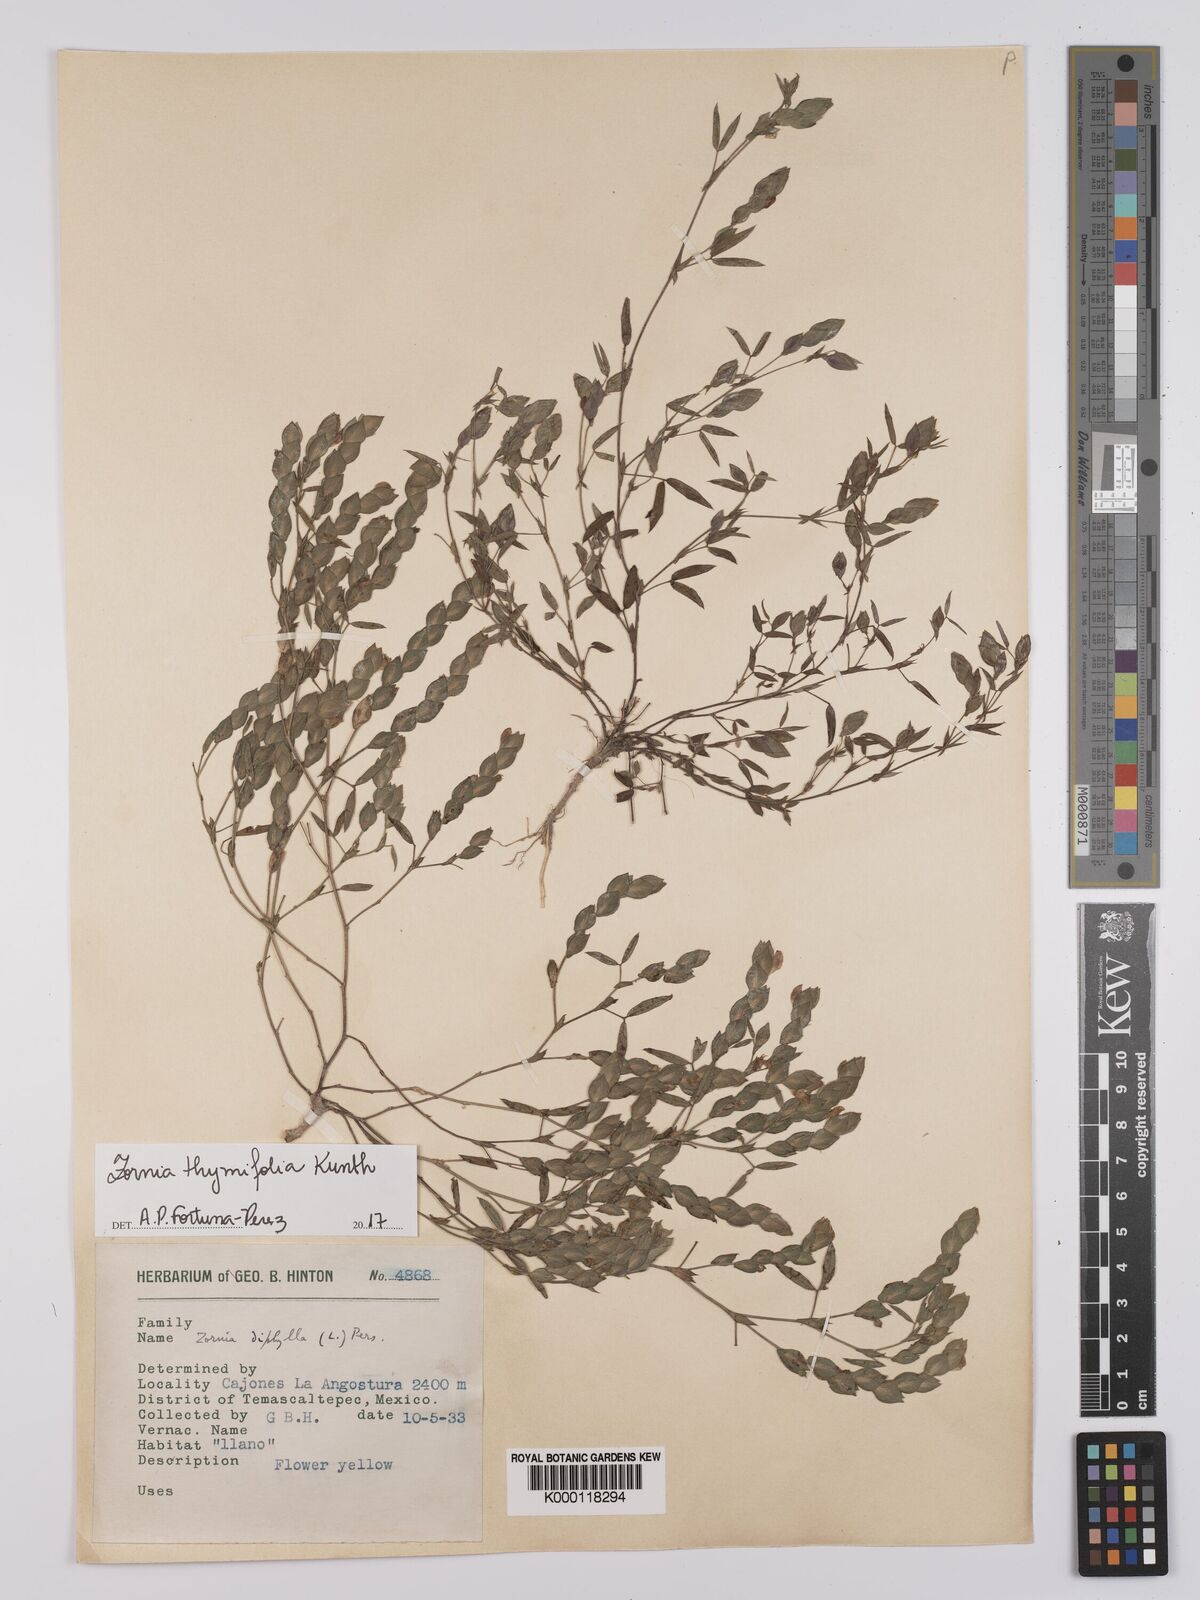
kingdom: Plantae
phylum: Tracheophyta
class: Magnoliopsida
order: Fabales
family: Fabaceae
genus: Zornia
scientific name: Zornia thymifolia
